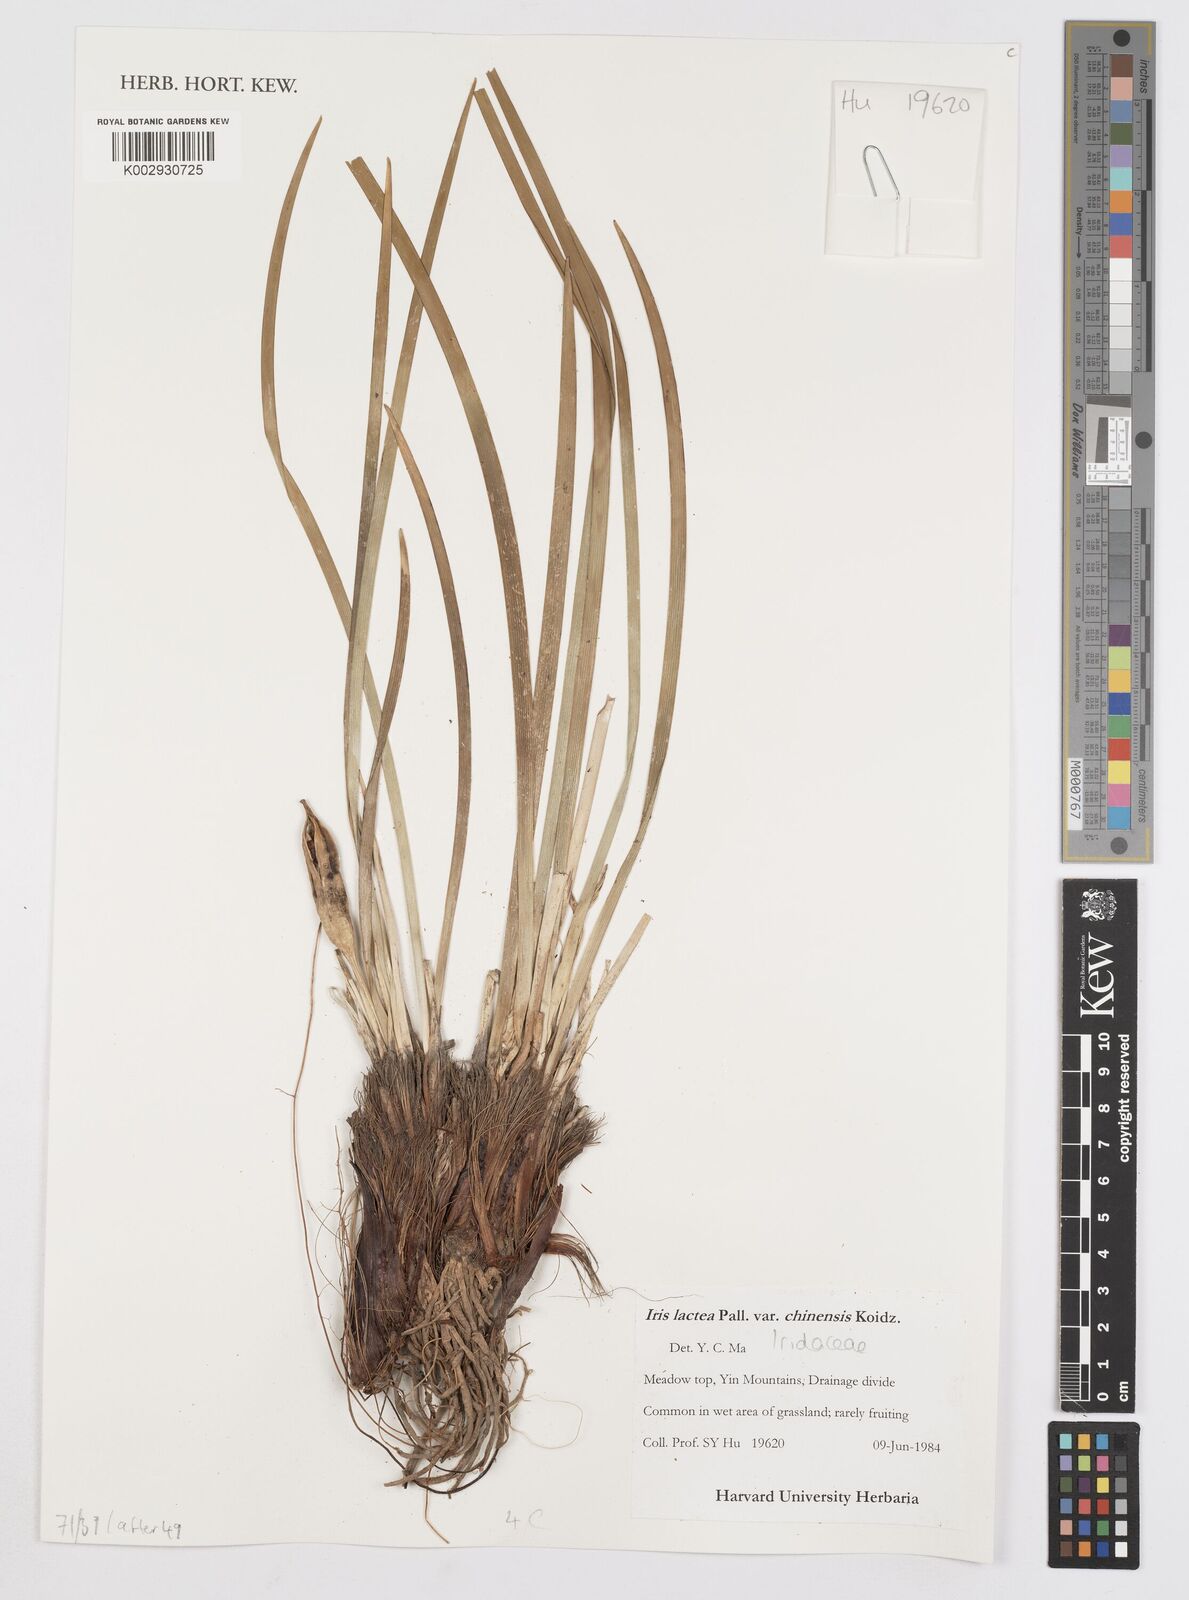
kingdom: Plantae
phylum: Tracheophyta
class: Liliopsida
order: Asparagales
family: Iridaceae
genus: Iris
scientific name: Iris lactea
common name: White-flower chinese iris
